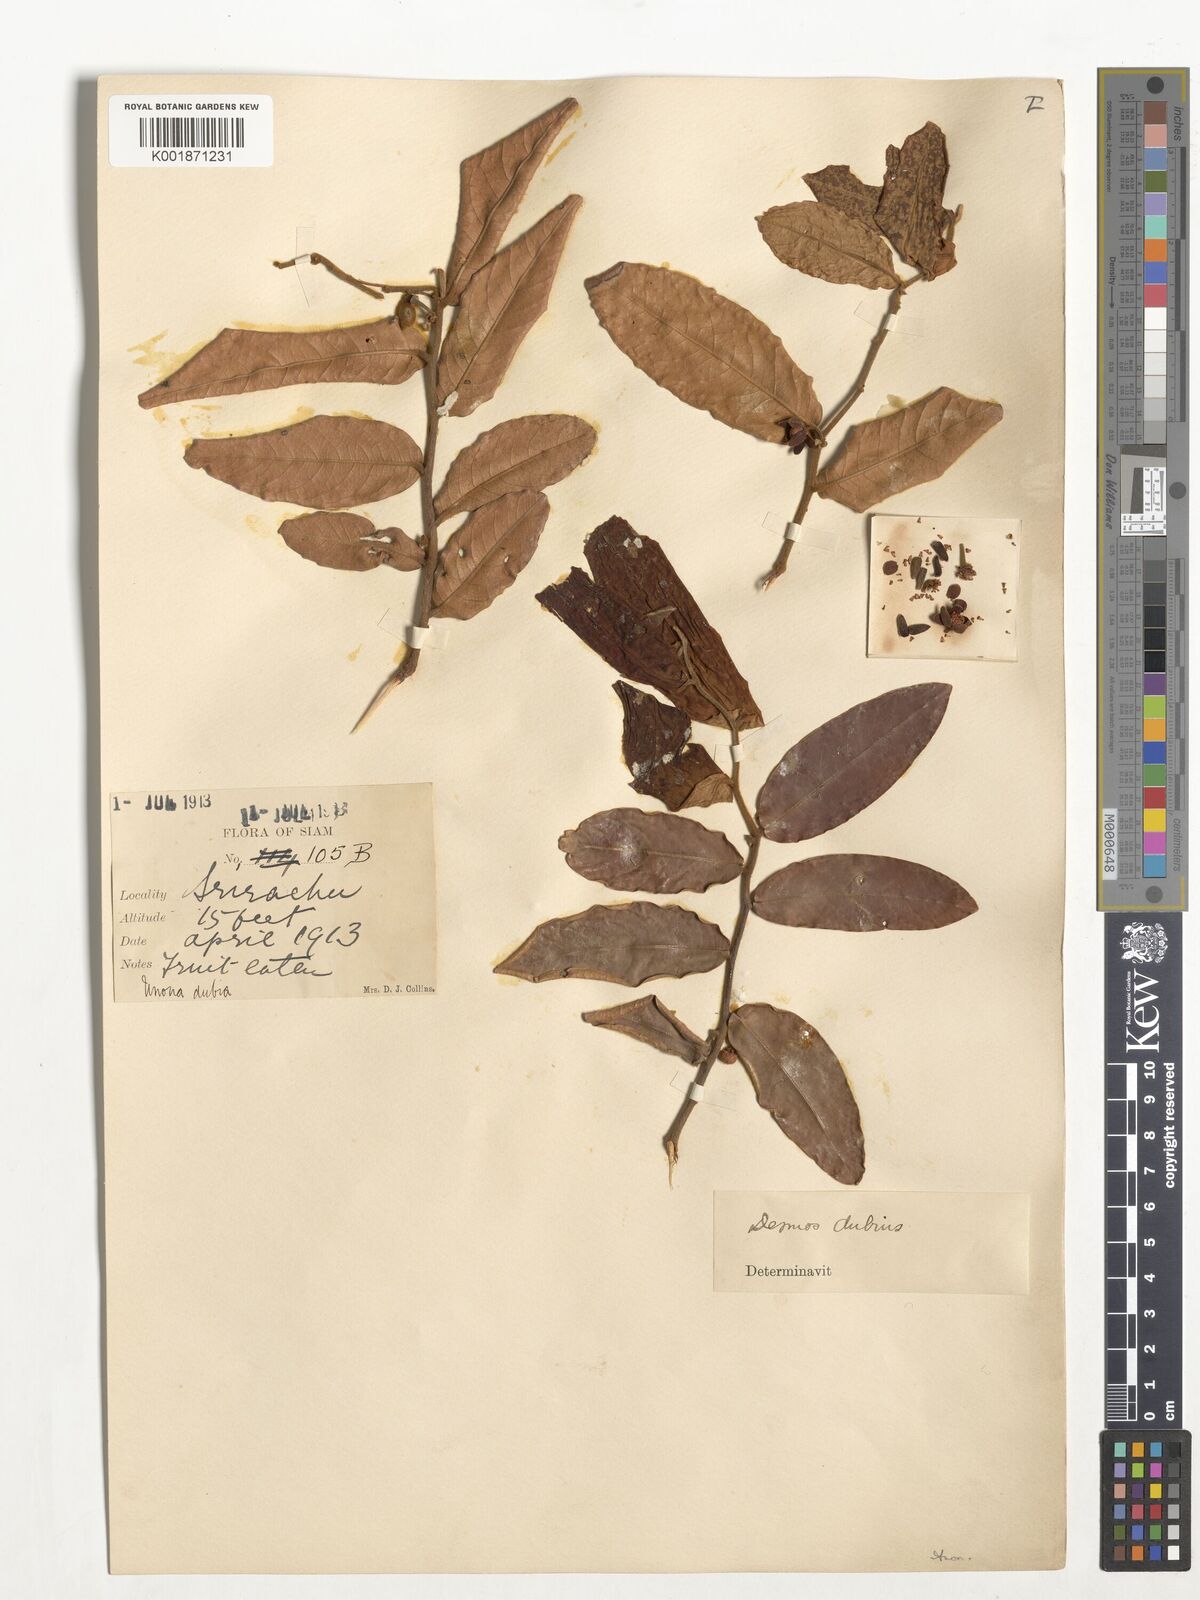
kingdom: Plantae
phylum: Tracheophyta
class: Magnoliopsida
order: Magnoliales
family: Annonaceae
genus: Polyalthia
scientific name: Polyalthia
